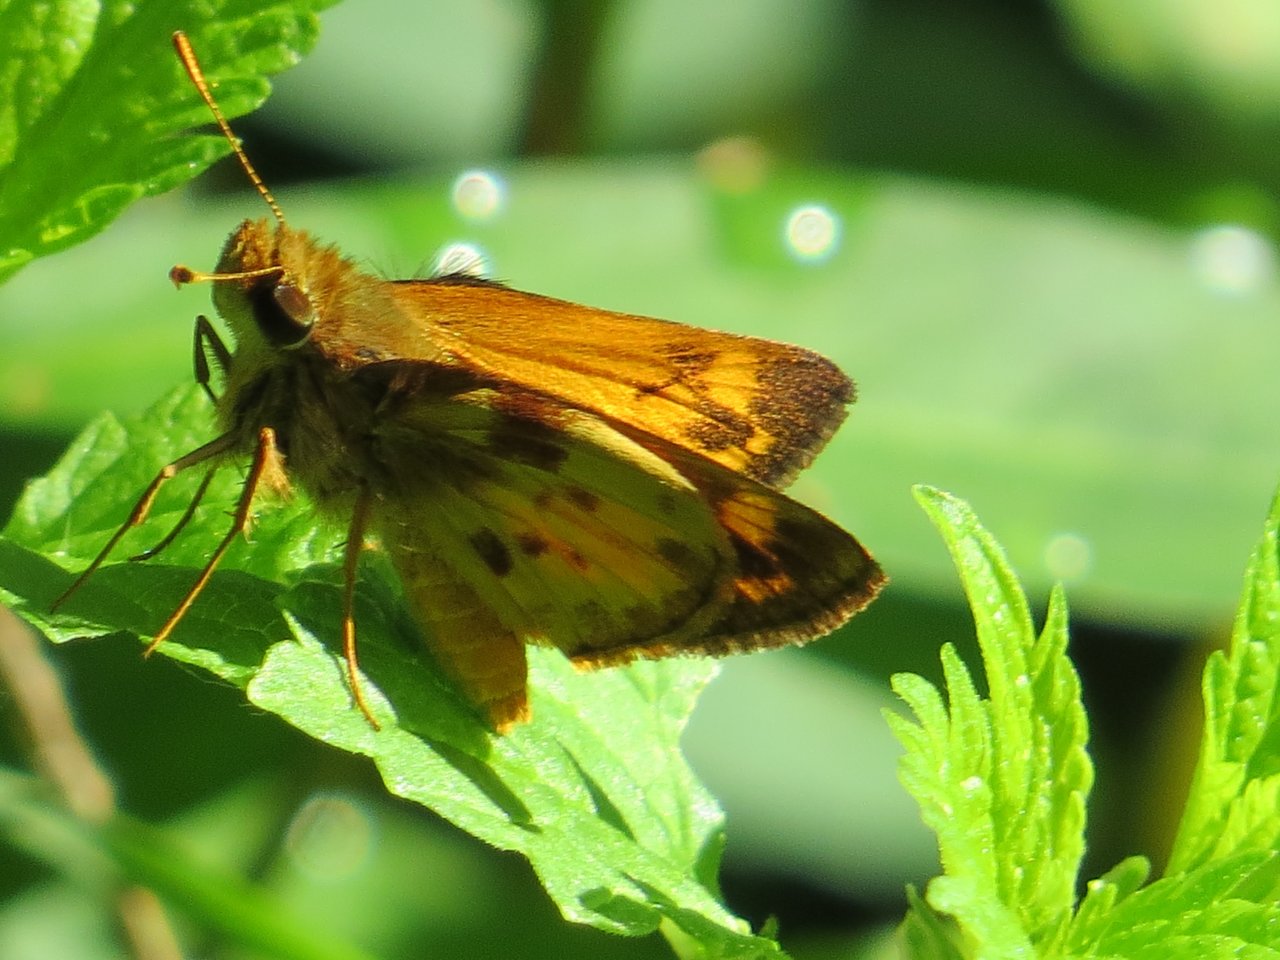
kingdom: Animalia
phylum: Arthropoda
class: Insecta
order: Lepidoptera
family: Hesperiidae
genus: Lon
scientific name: Lon zabulon
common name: Zabulon Skipper
